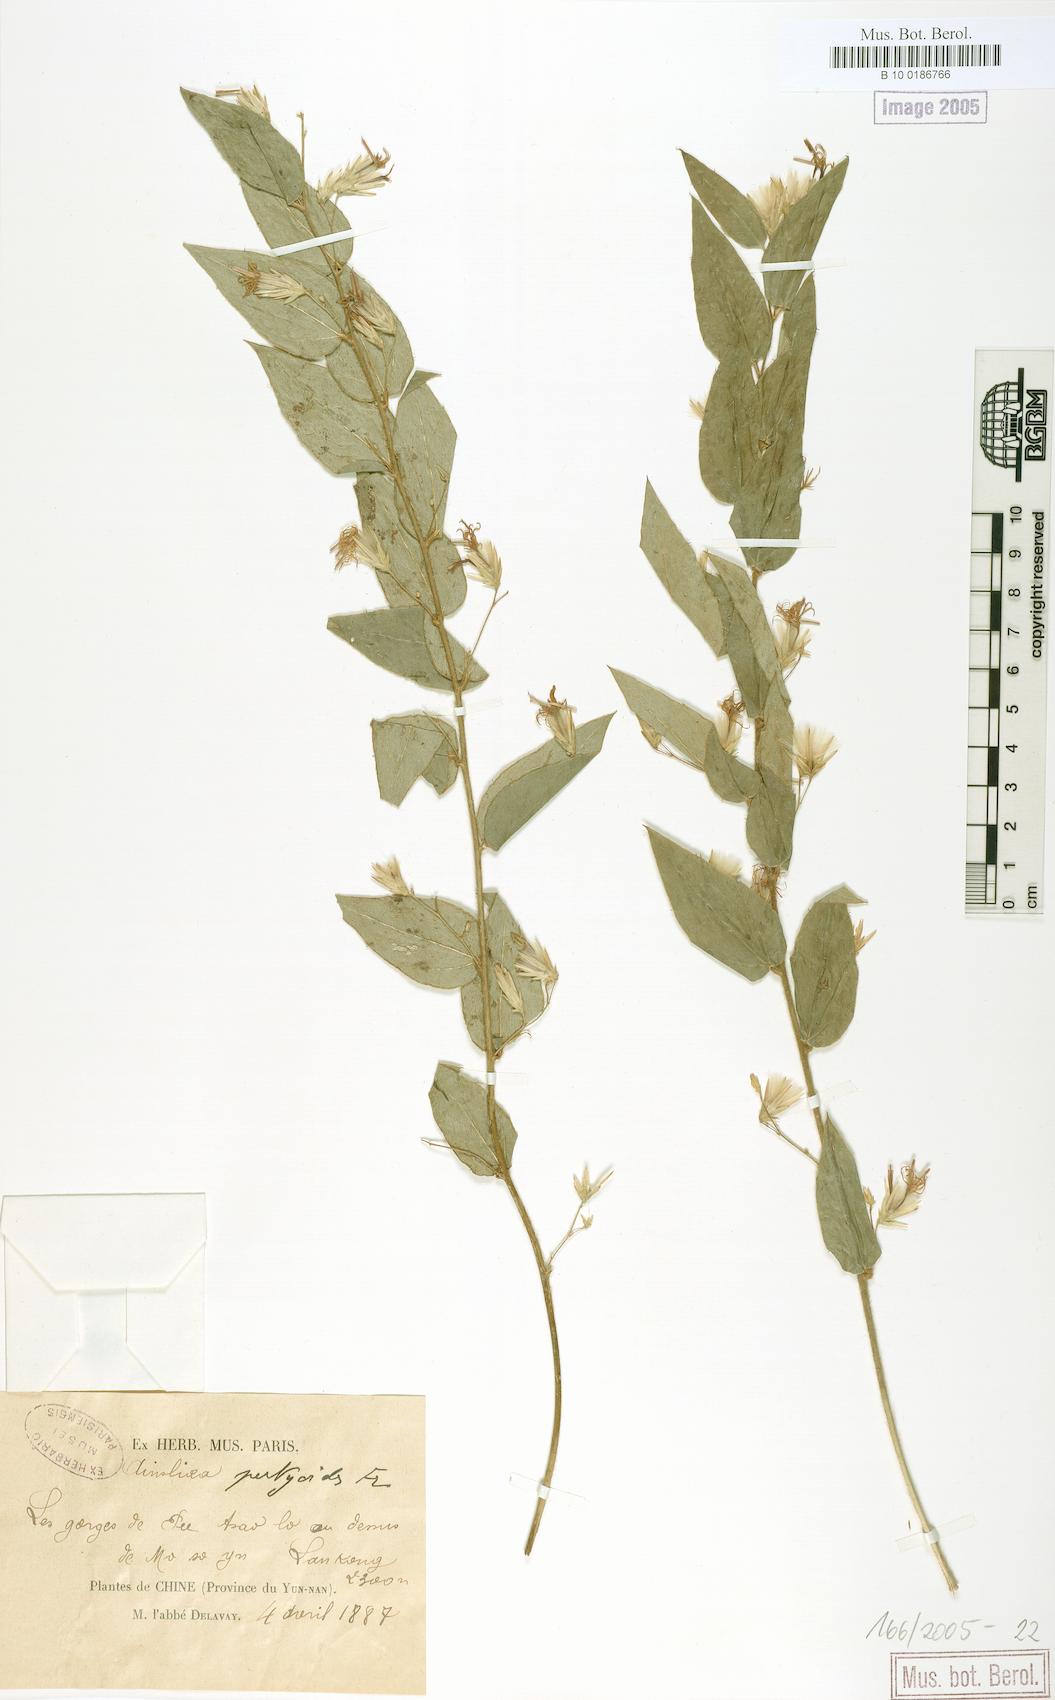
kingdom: Plantae
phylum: Tracheophyta
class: Magnoliopsida
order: Asterales
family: Asteraceae
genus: Ainsliaea
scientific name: Ainsliaea pertyoides
